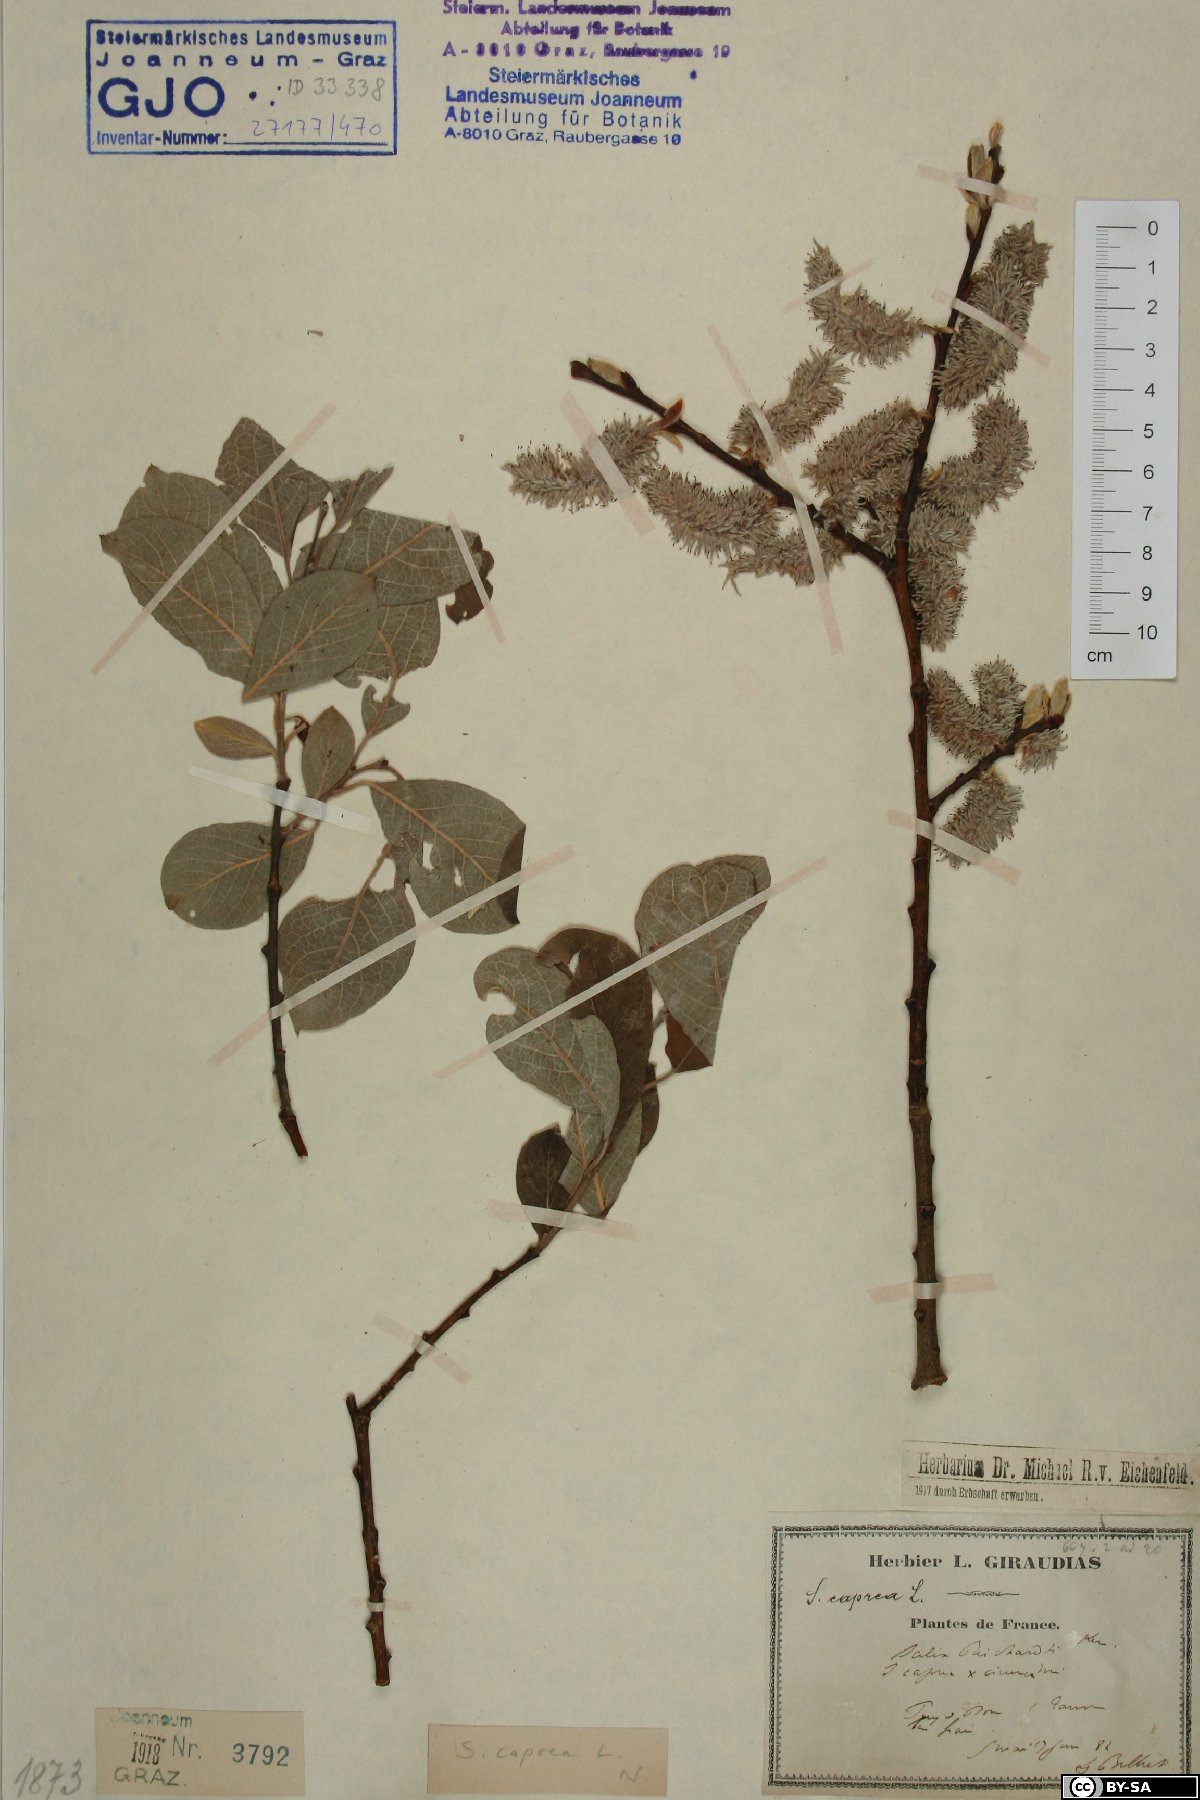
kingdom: Plantae
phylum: Tracheophyta
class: Magnoliopsida
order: Malpighiales
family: Salicaceae
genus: Salix
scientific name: Salix caprea
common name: Goat willow
